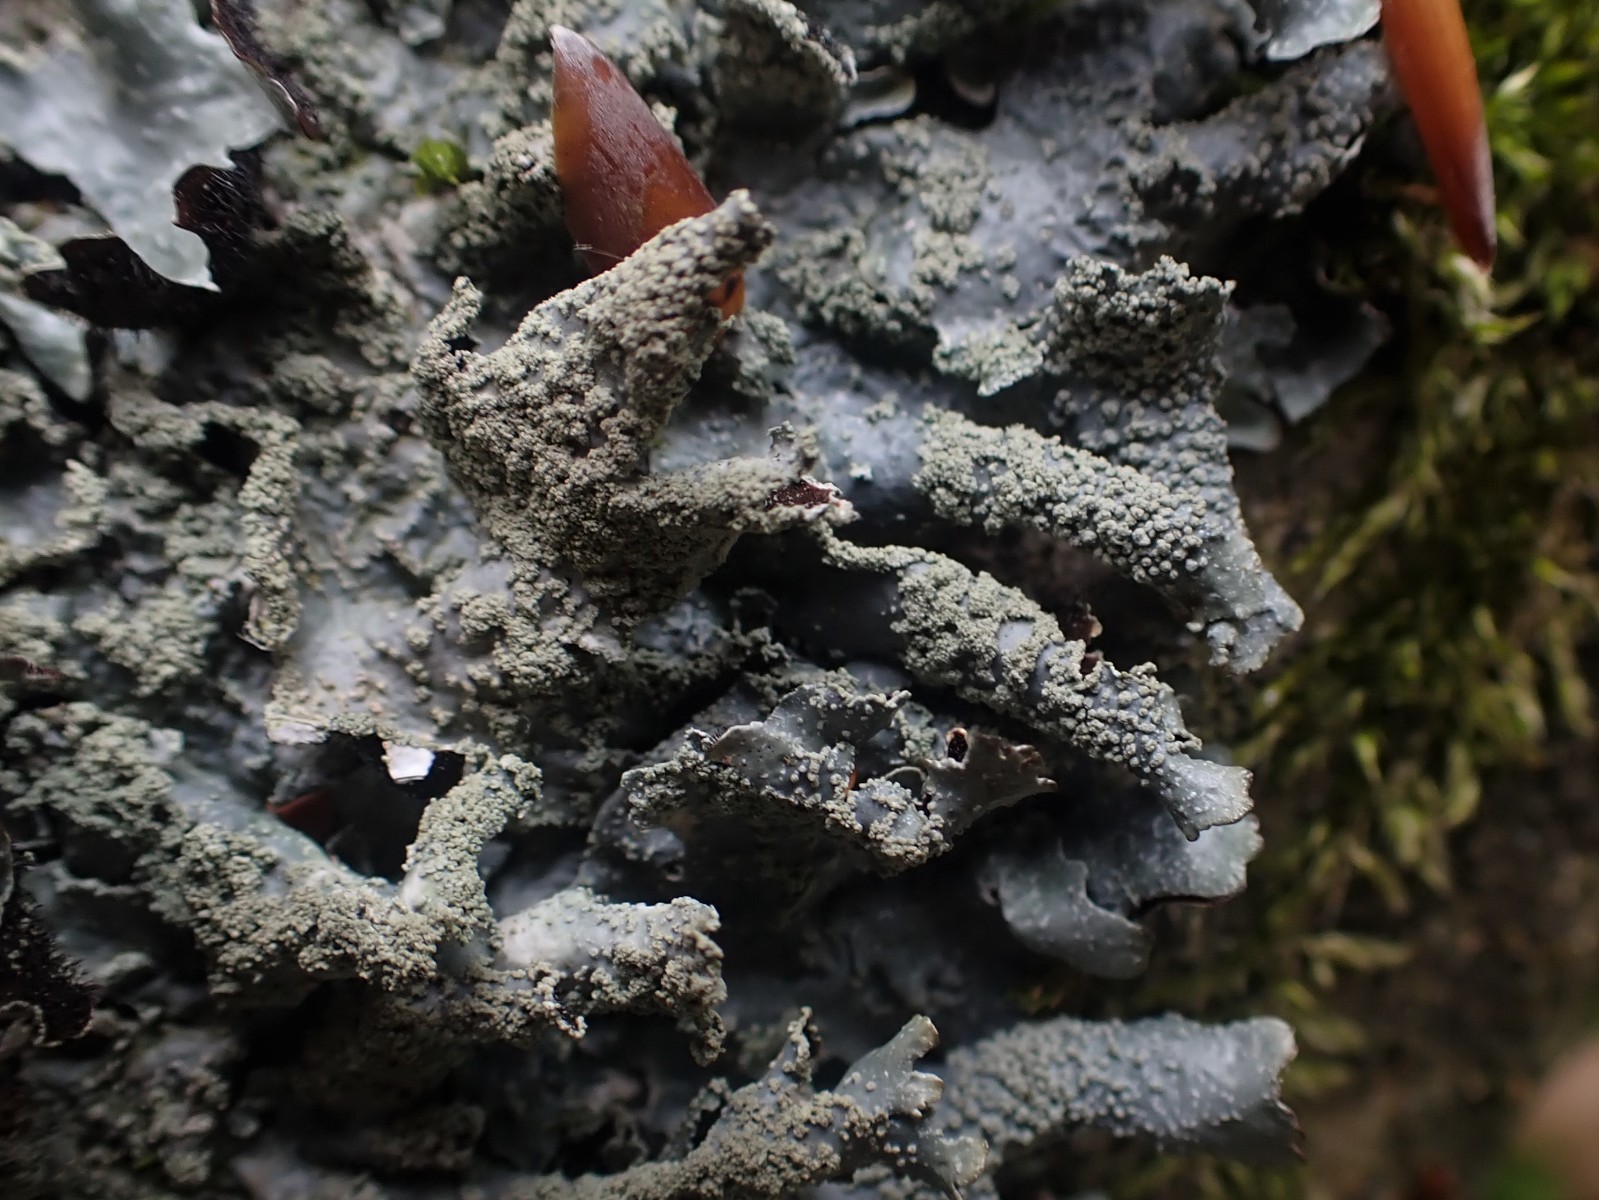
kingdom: Fungi
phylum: Ascomycota
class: Lecanoromycetes
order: Lecanorales
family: Parmeliaceae
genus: Parmelia
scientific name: Parmelia submontana
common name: langlobet skållav
